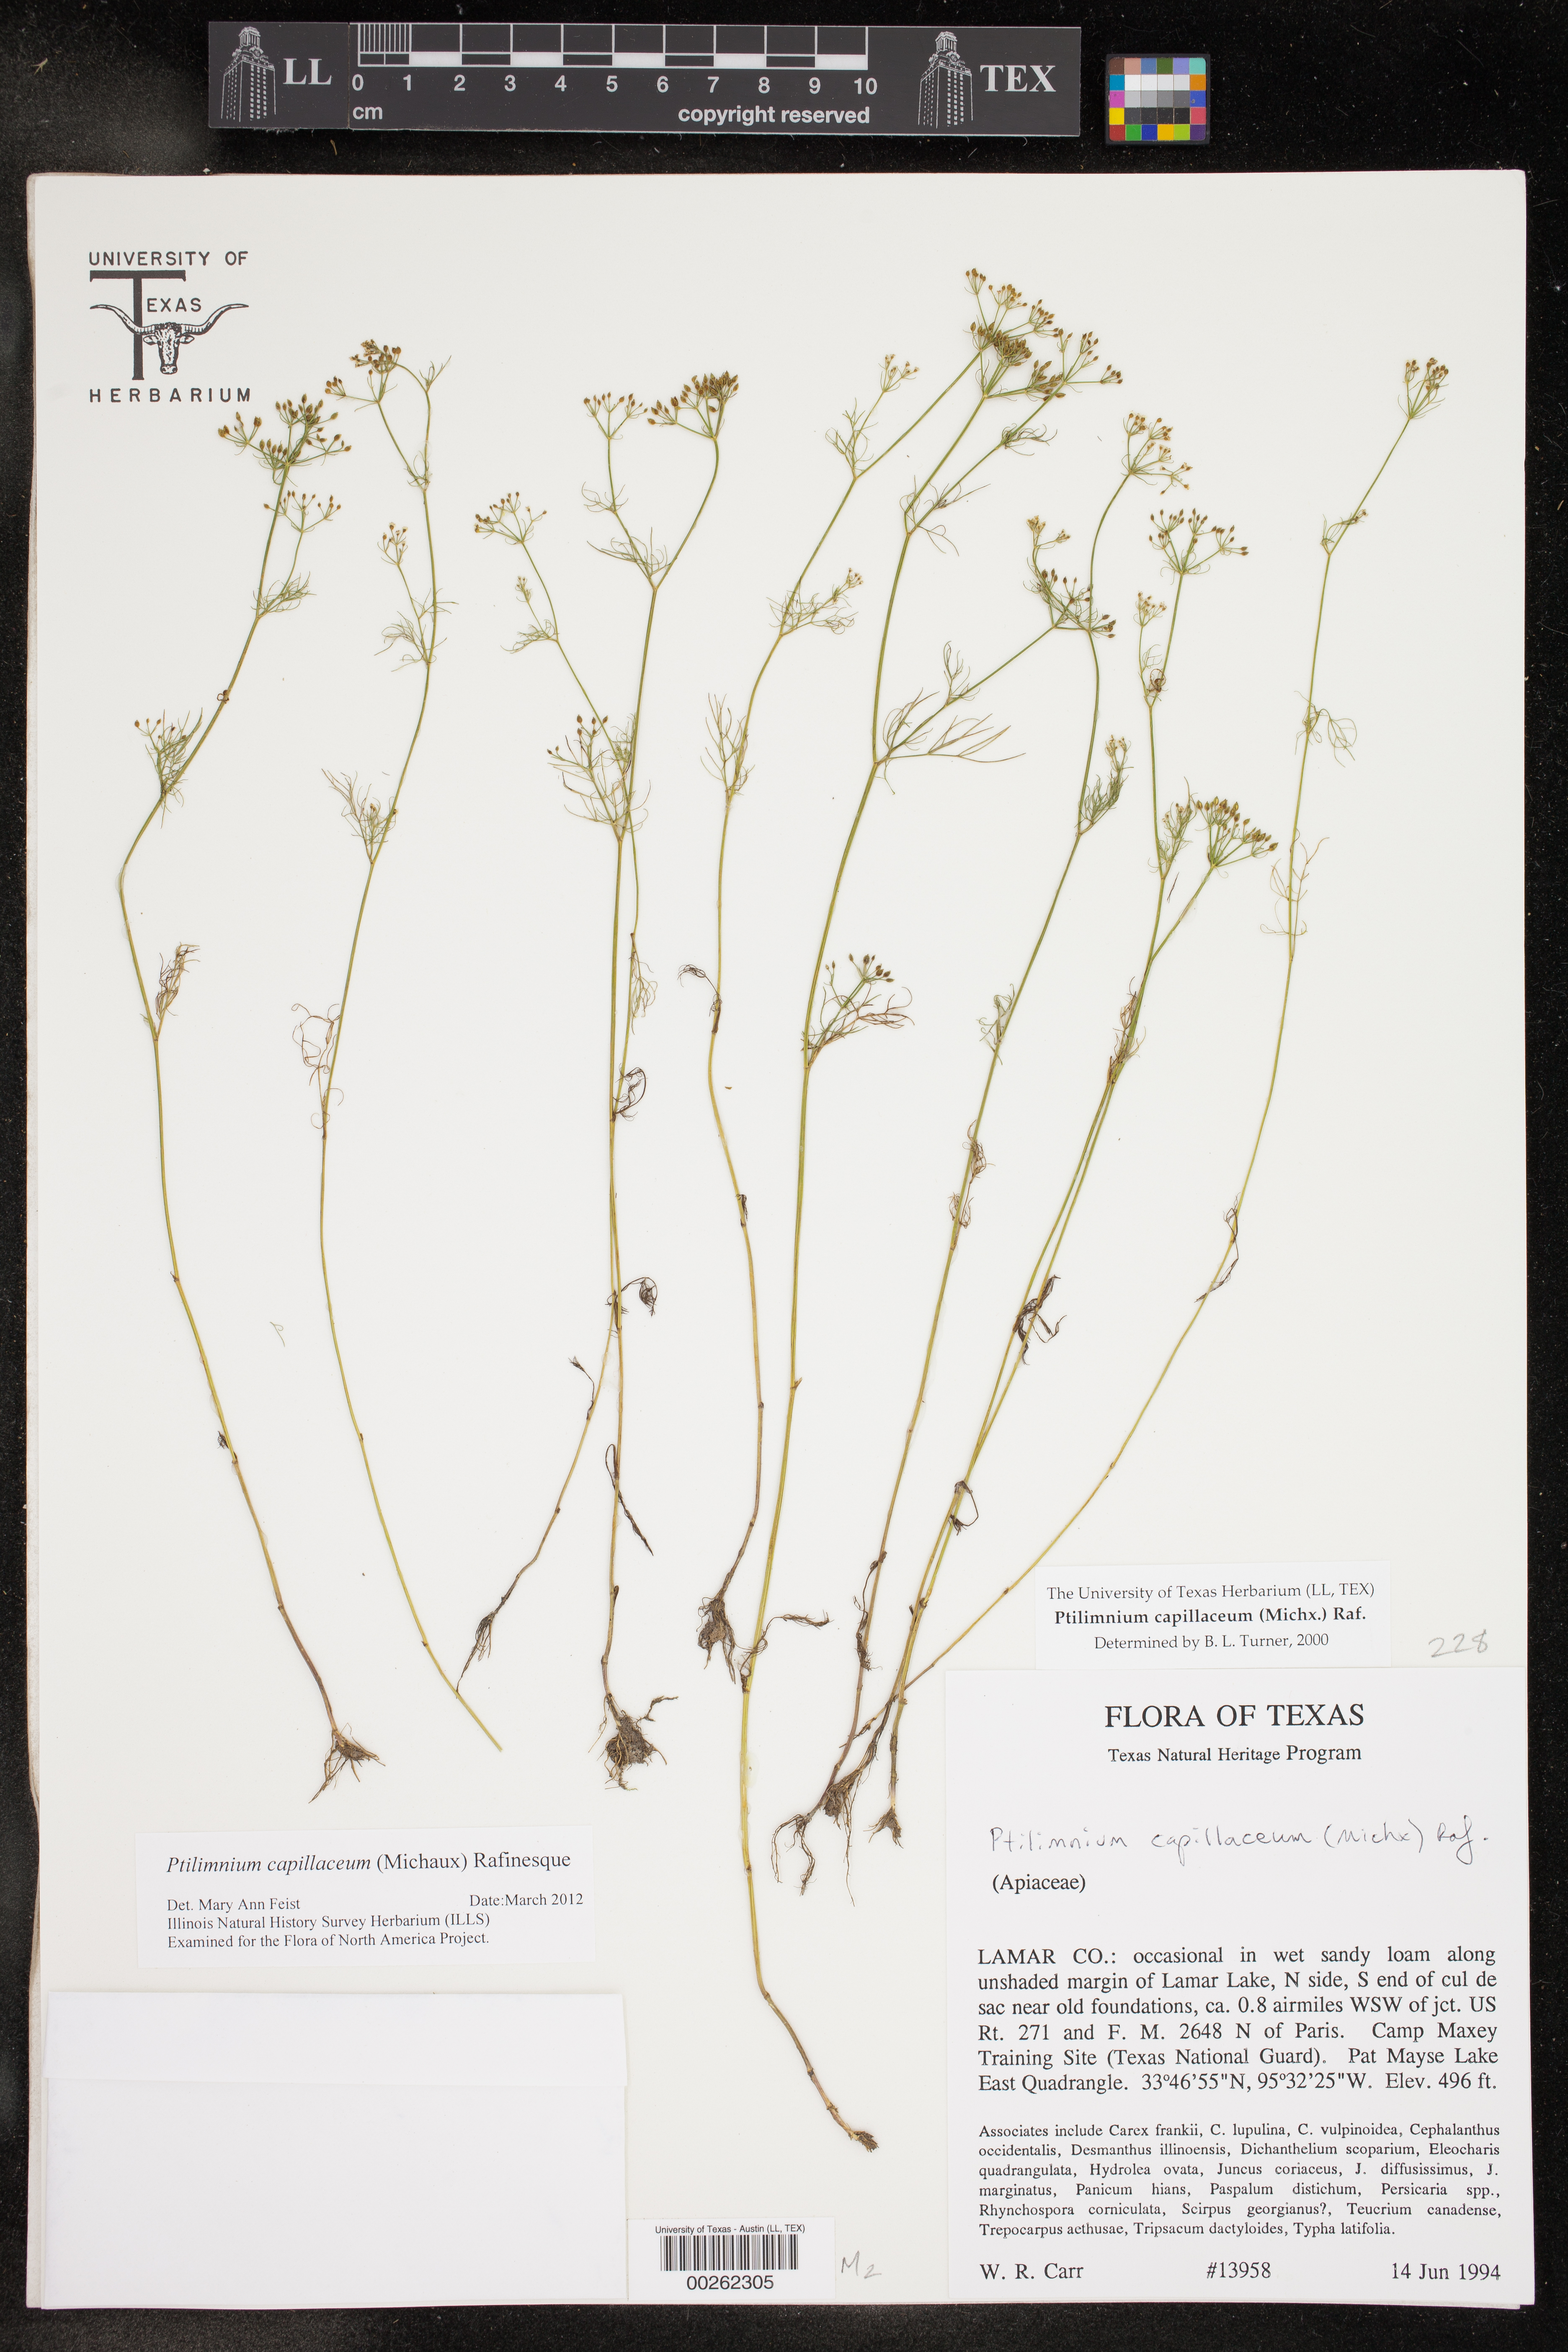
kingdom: Plantae
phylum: Tracheophyta
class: Magnoliopsida
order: Apiales
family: Apiaceae
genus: Ptilimnium
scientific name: Ptilimnium capillaceum
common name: Herbwilliam
